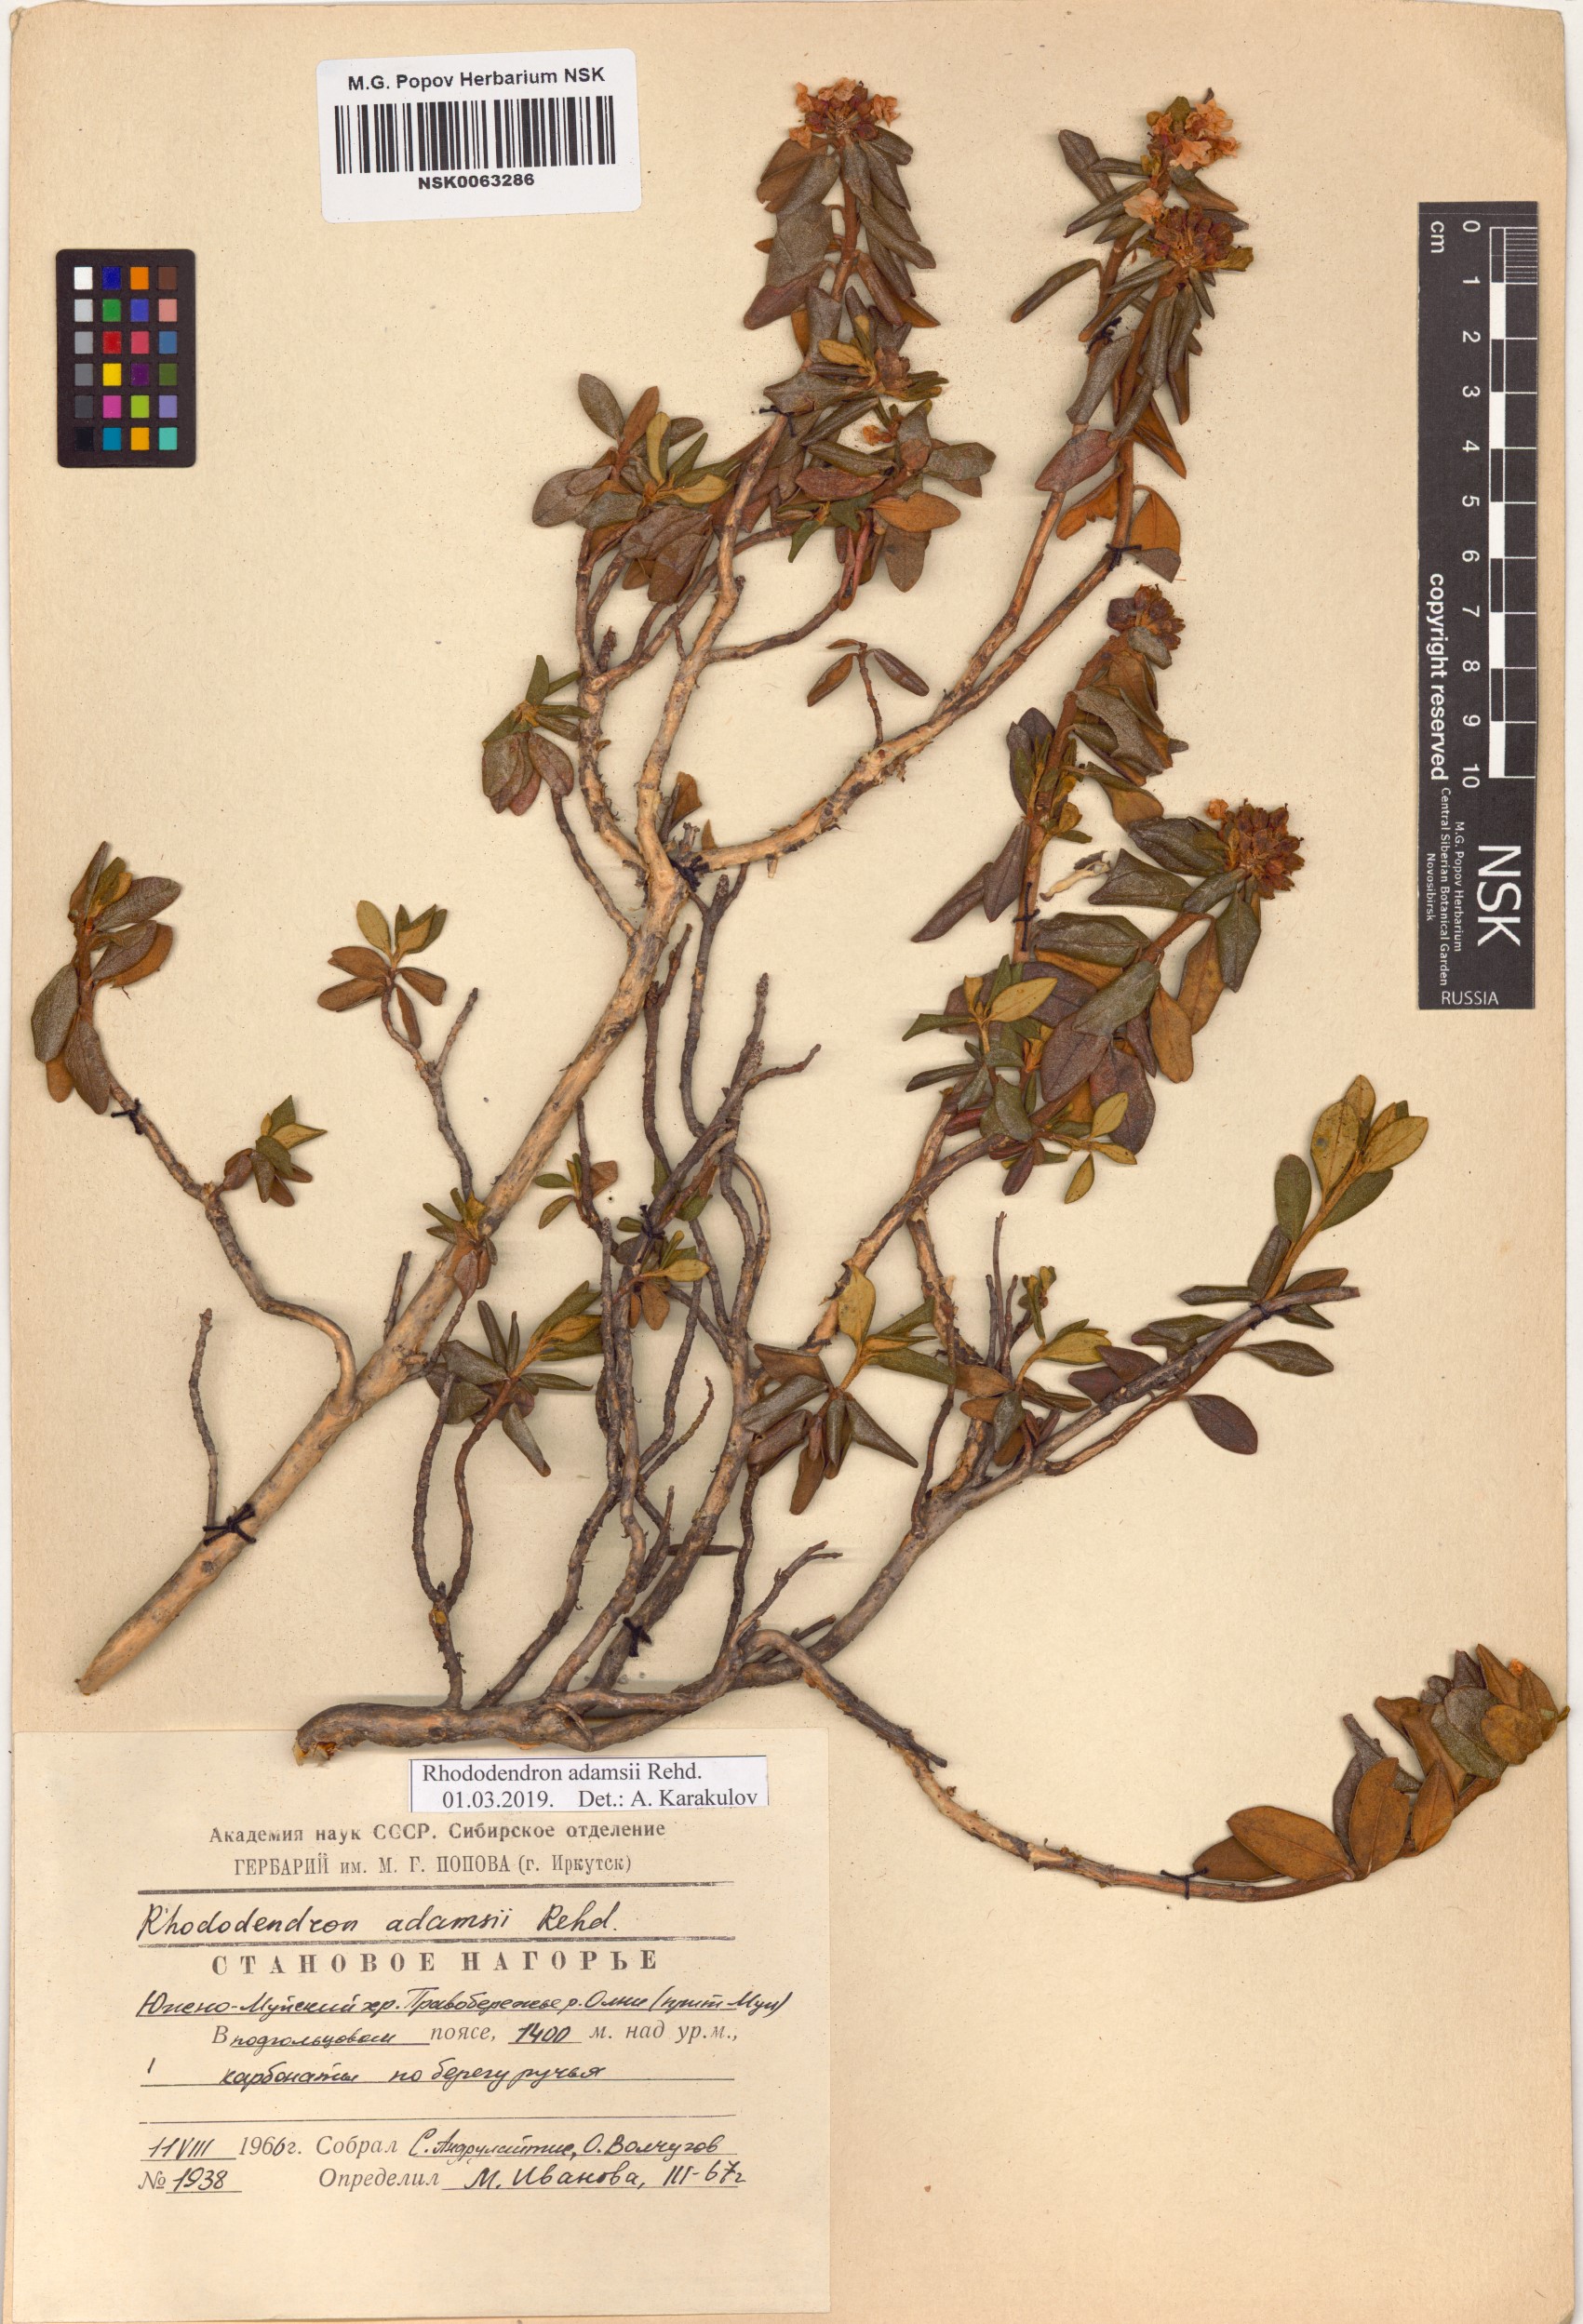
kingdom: Plantae
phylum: Tracheophyta
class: Magnoliopsida
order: Ericales
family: Ericaceae
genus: Rhododendron
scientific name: Rhododendron adamsii
